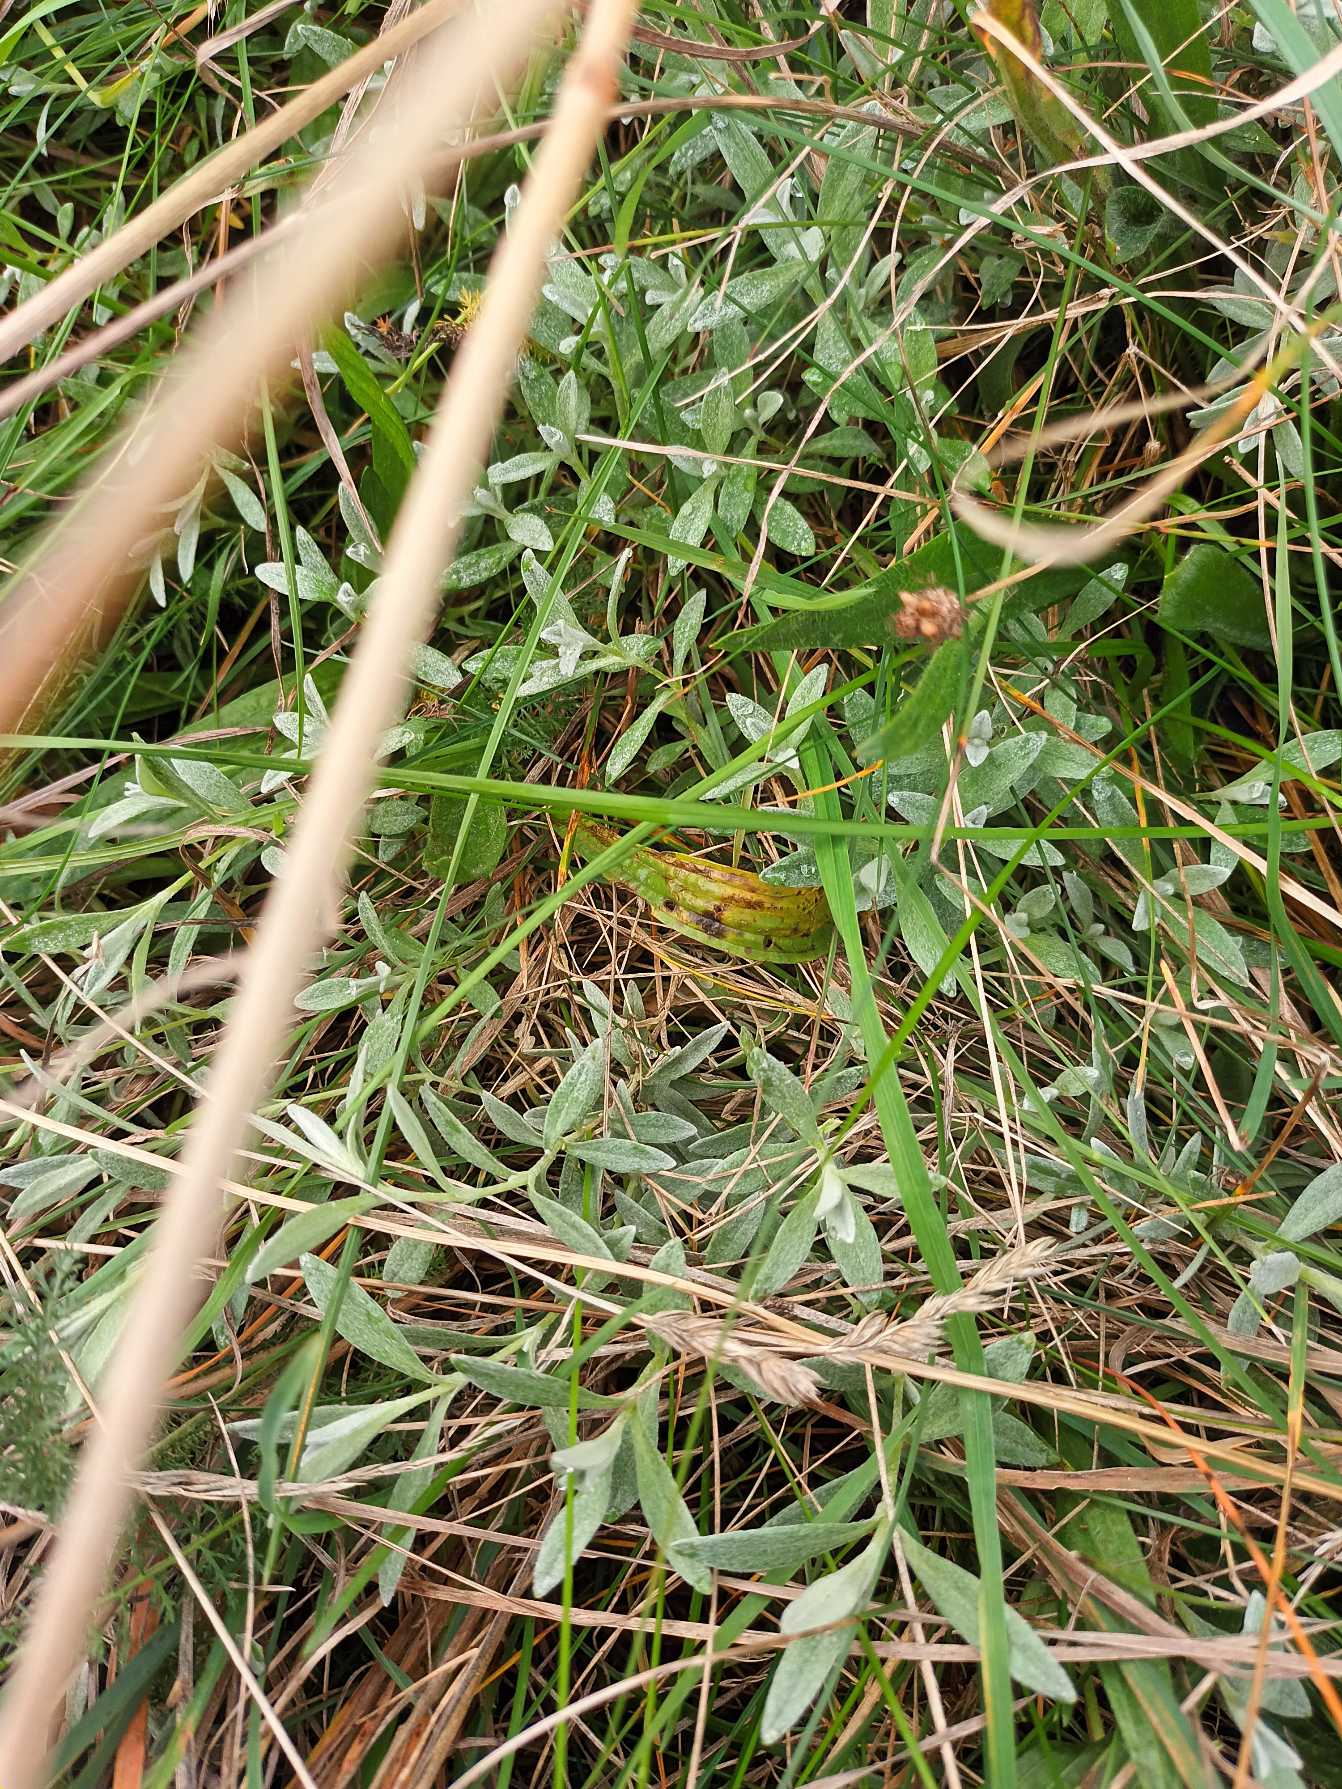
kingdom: Plantae
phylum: Tracheophyta
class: Magnoliopsida
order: Caryophyllales
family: Caryophyllaceae
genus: Cerastium
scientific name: Cerastium
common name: Storblomstret hønsetarm × filtet hønsetarm
